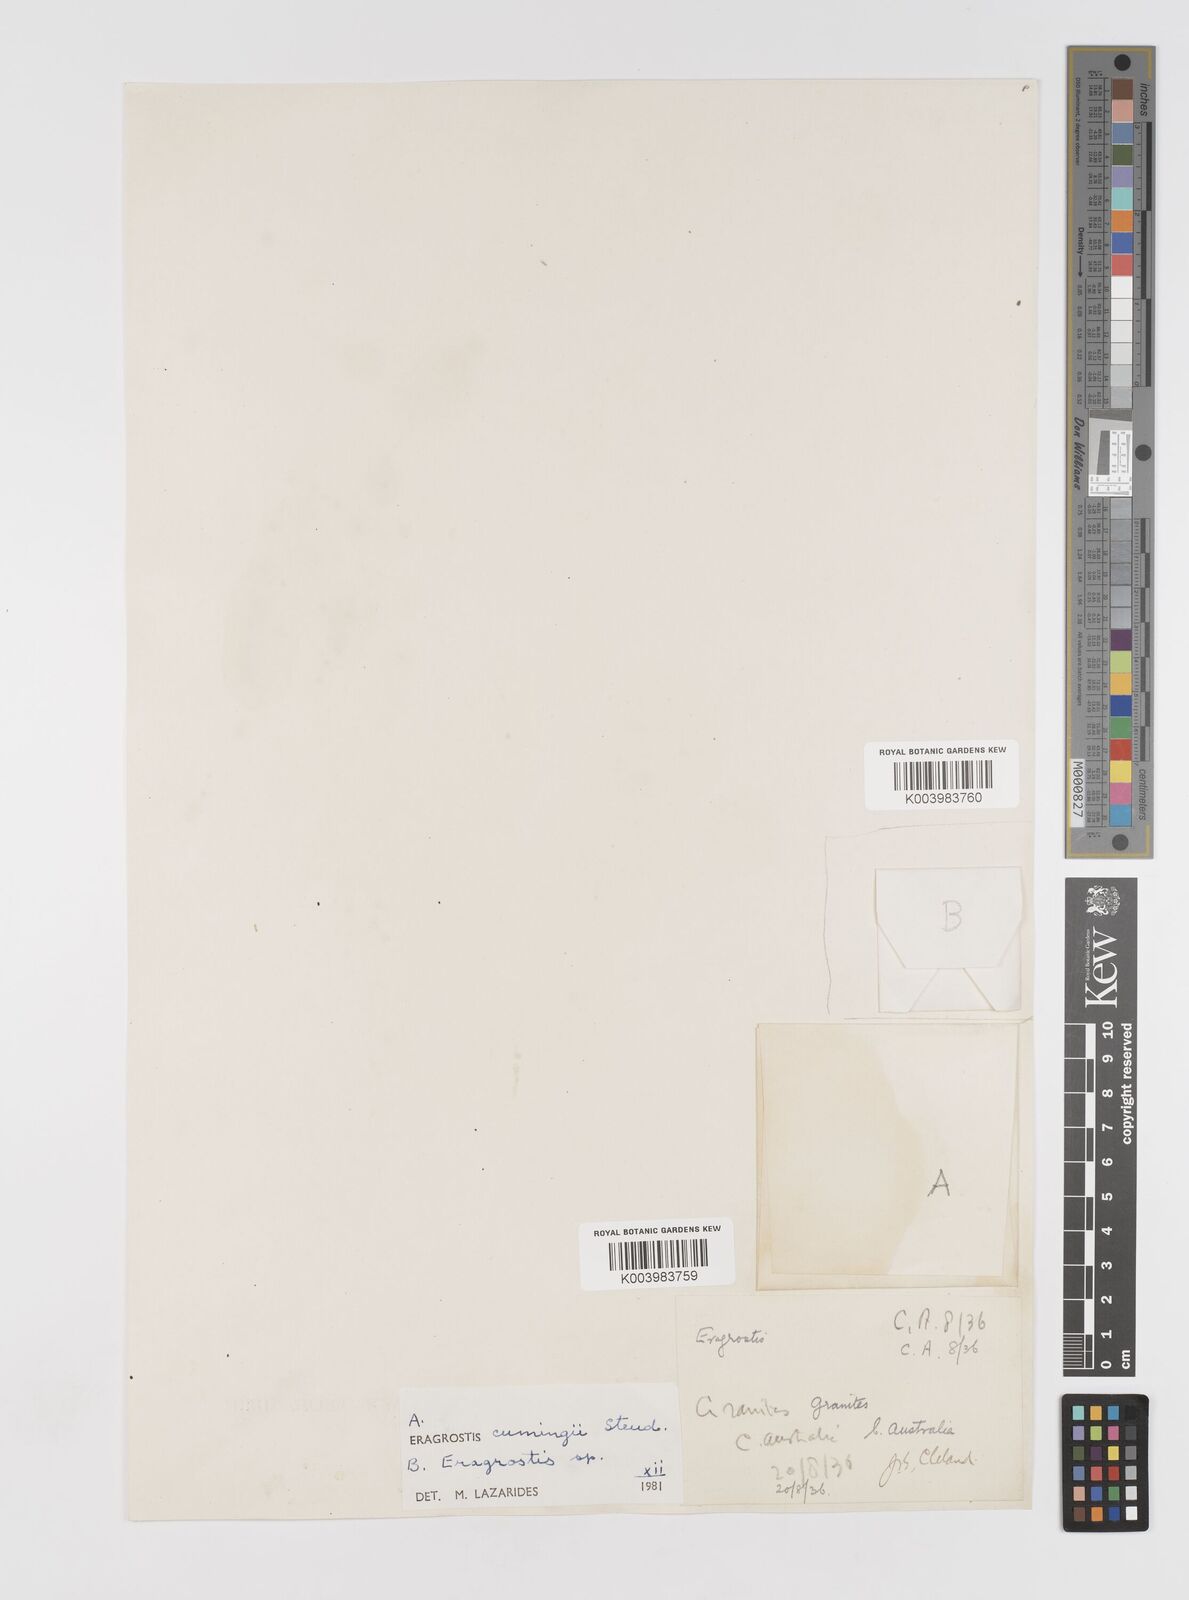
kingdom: Plantae
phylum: Tracheophyta
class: Liliopsida
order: Poales
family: Poaceae
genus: Eragrostis
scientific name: Eragrostis cumingii
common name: Cuming's lovegrass
